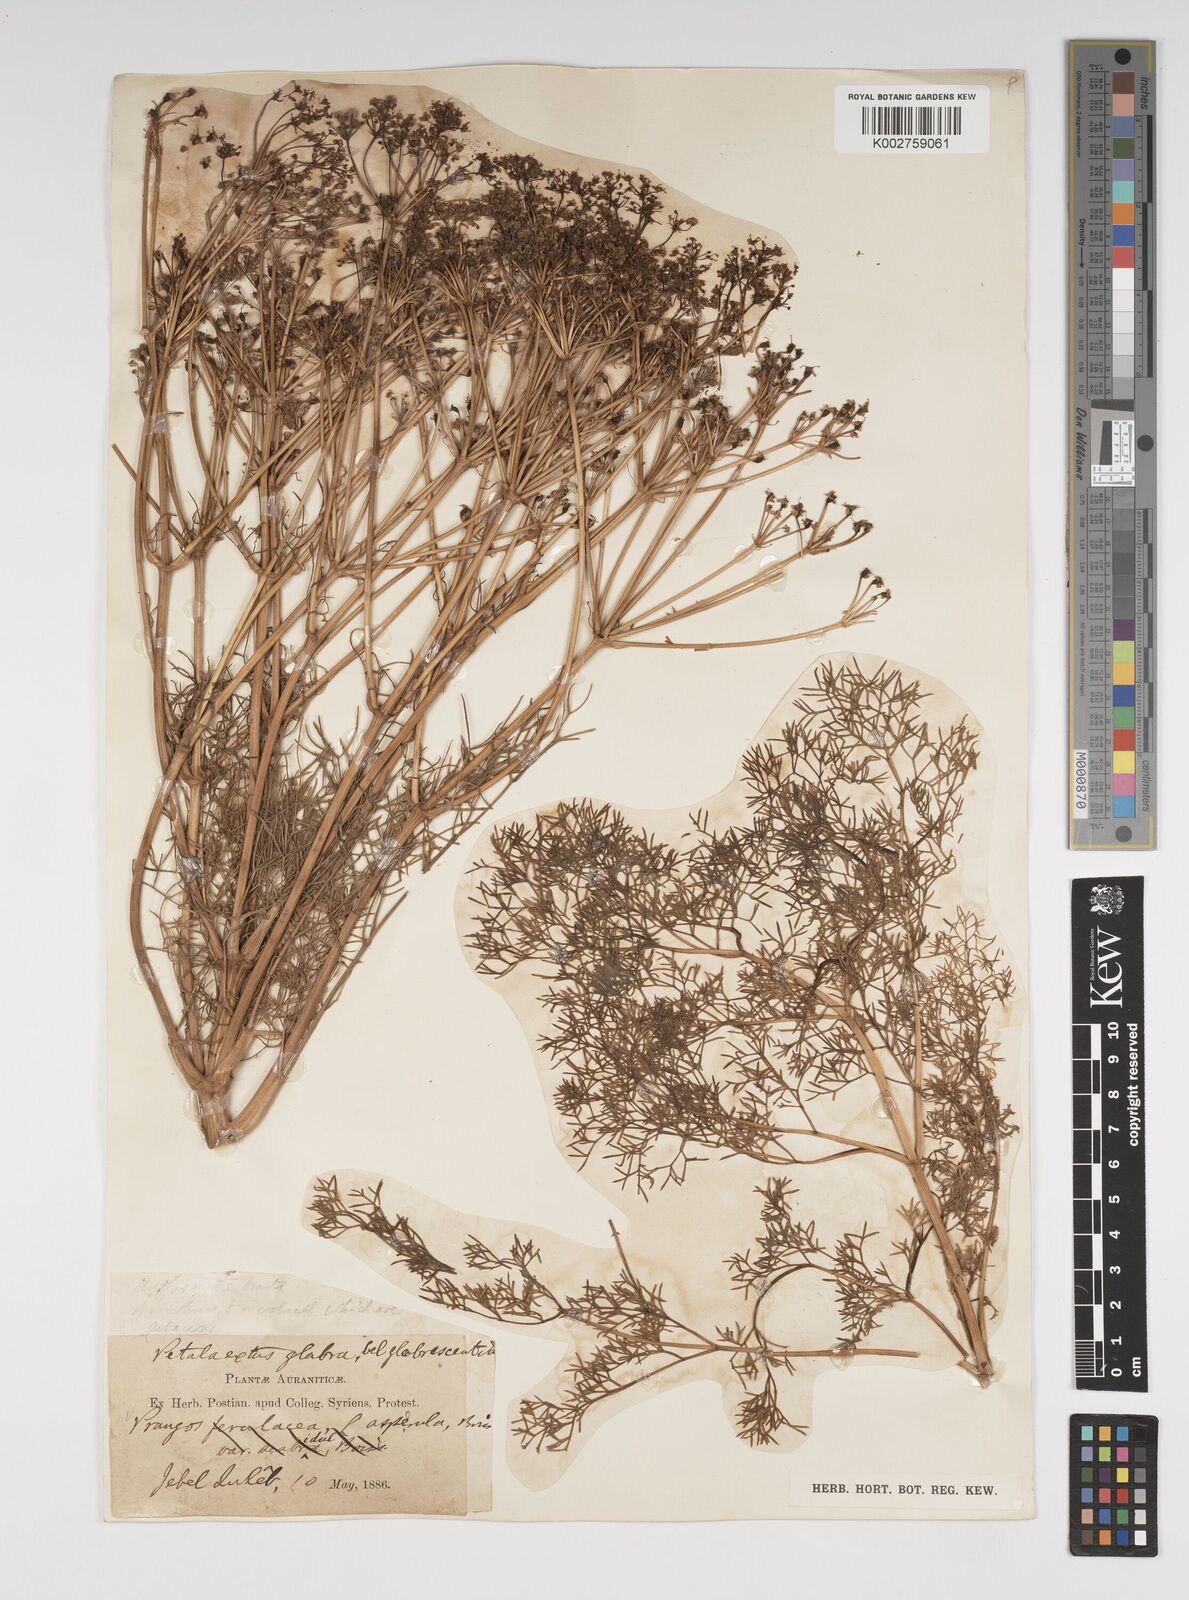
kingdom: Plantae
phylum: Tracheophyta
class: Magnoliopsida
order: Apiales
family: Apiaceae
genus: Prangos
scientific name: Prangos asperula
